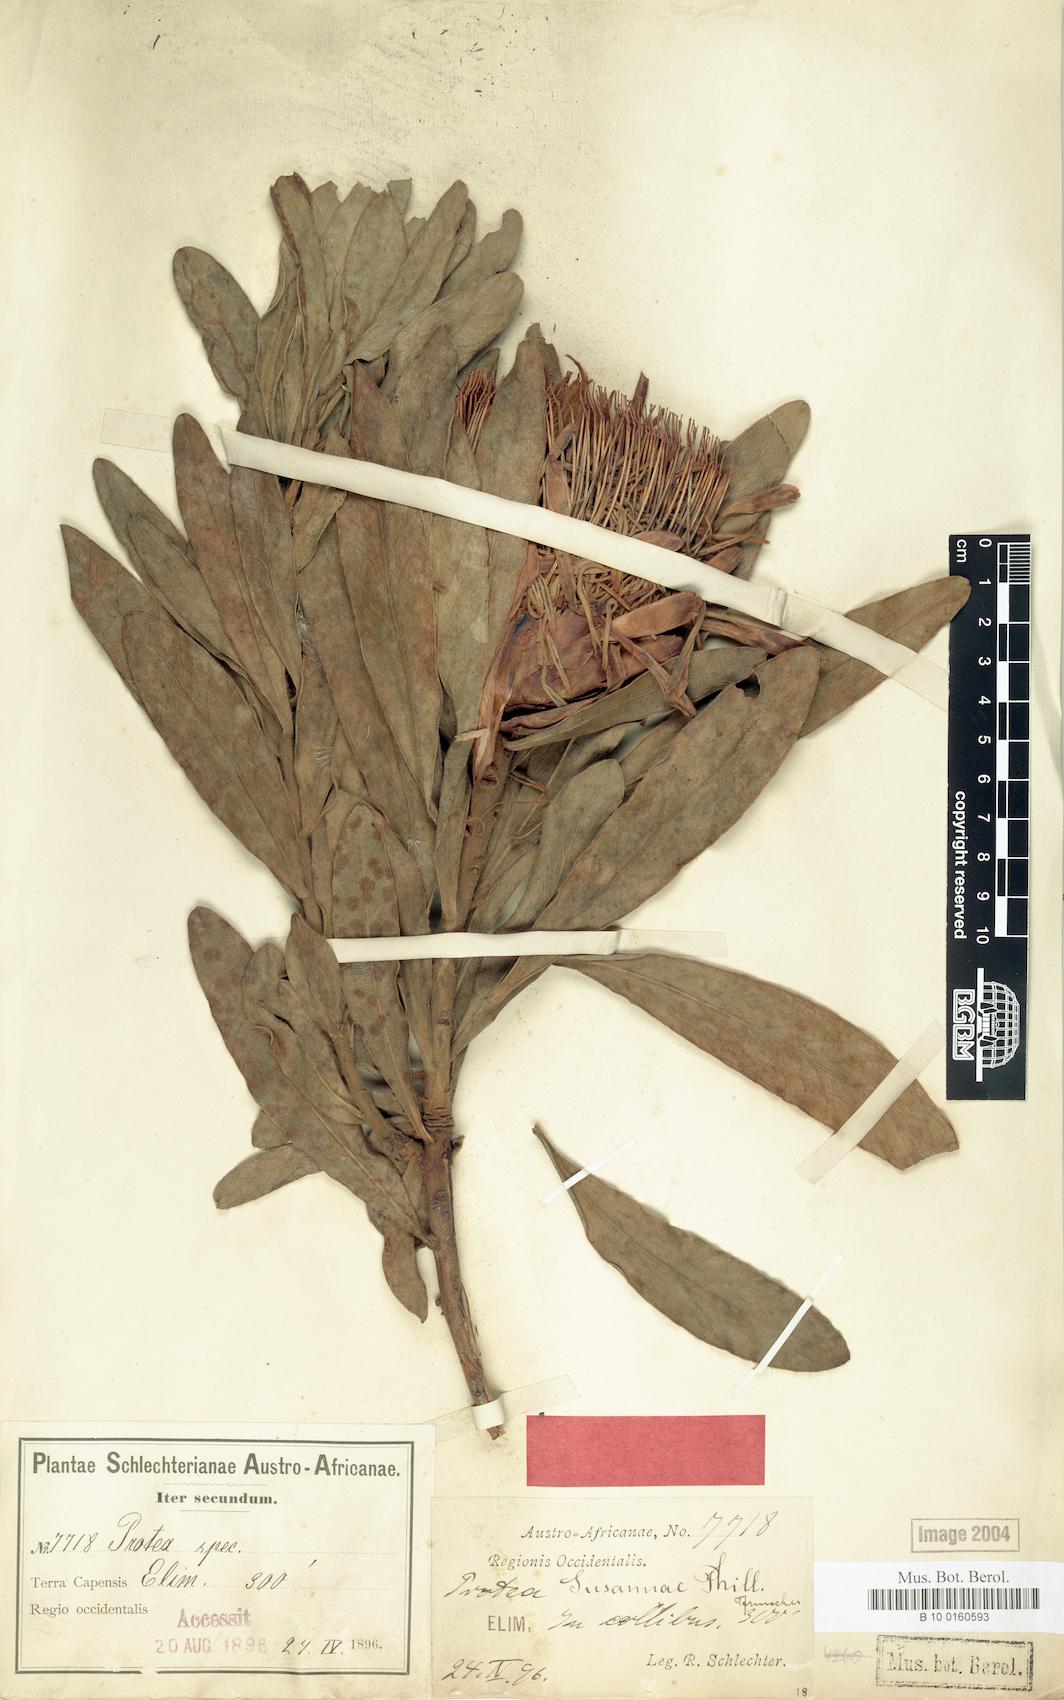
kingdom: Plantae
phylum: Tracheophyta
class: Magnoliopsida
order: Proteales
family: Proteaceae
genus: Protea
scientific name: Protea susannae
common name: Foetid-leaf sugarbush
